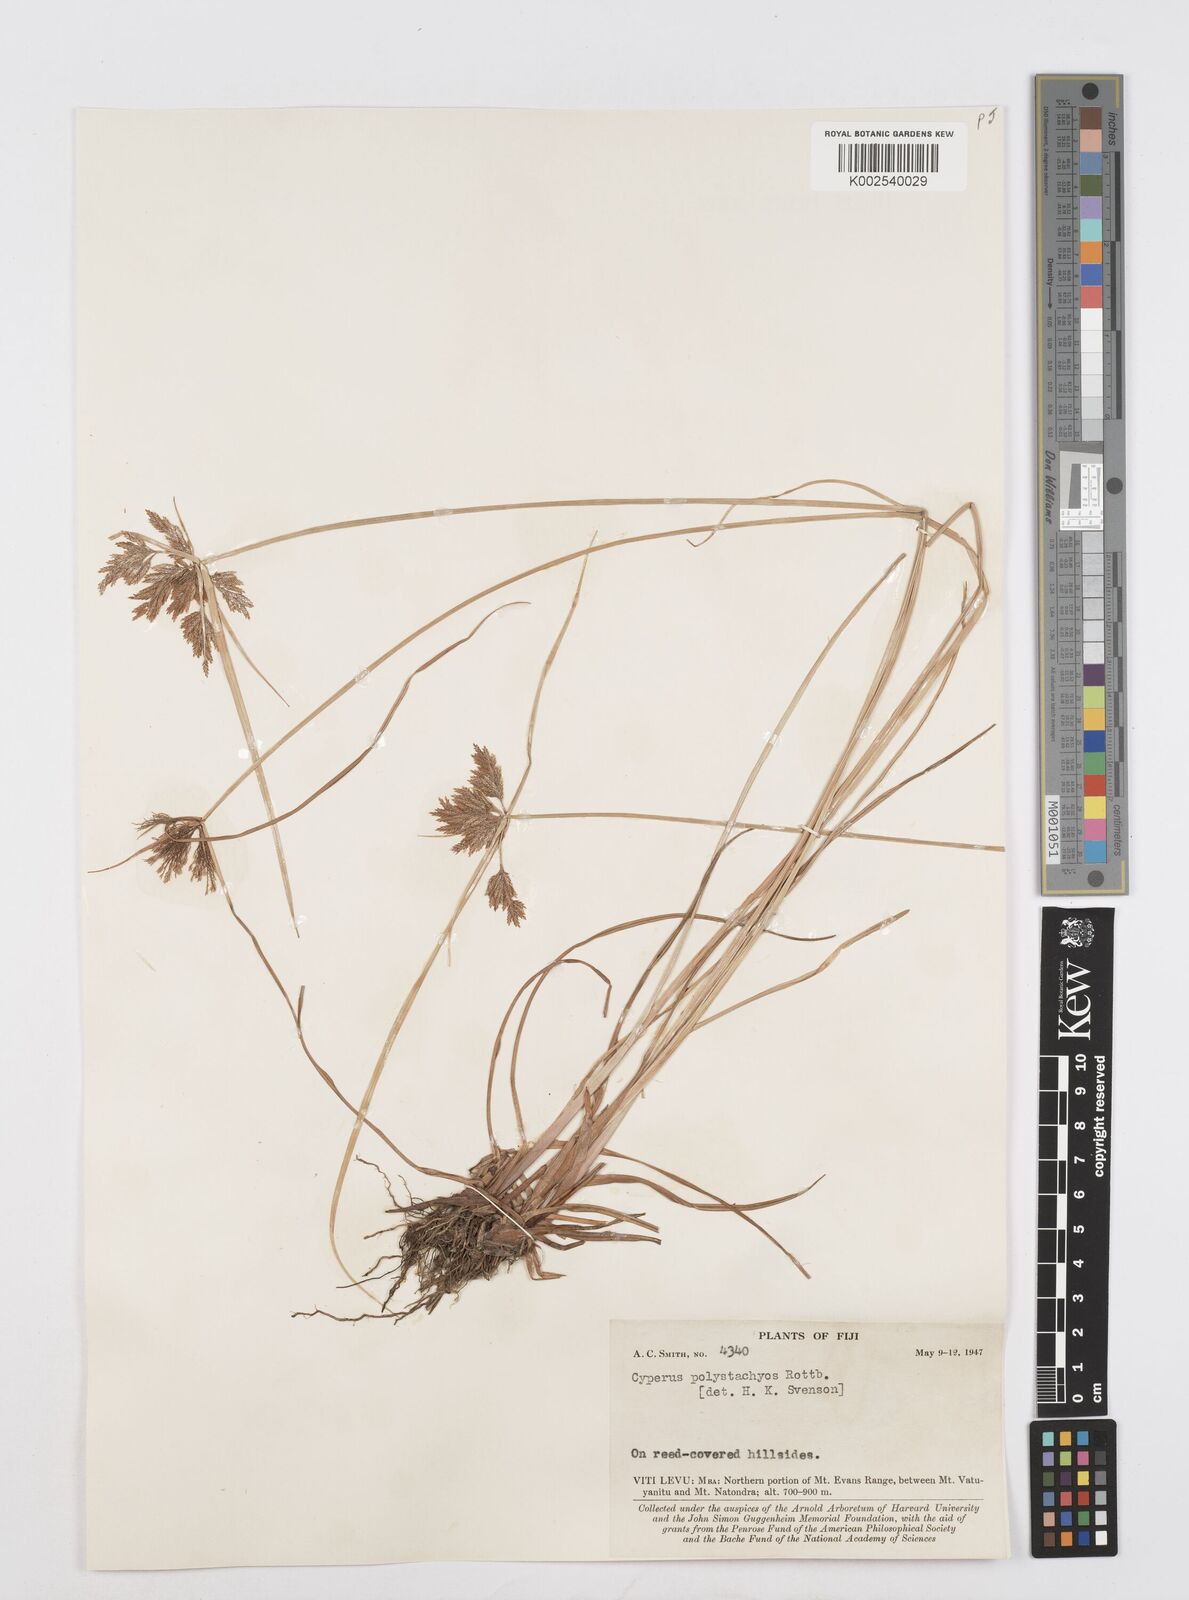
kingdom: Plantae
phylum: Tracheophyta
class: Liliopsida
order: Poales
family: Cyperaceae
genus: Cyperus
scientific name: Cyperus polystachyos
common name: Bunchy flat sedge
